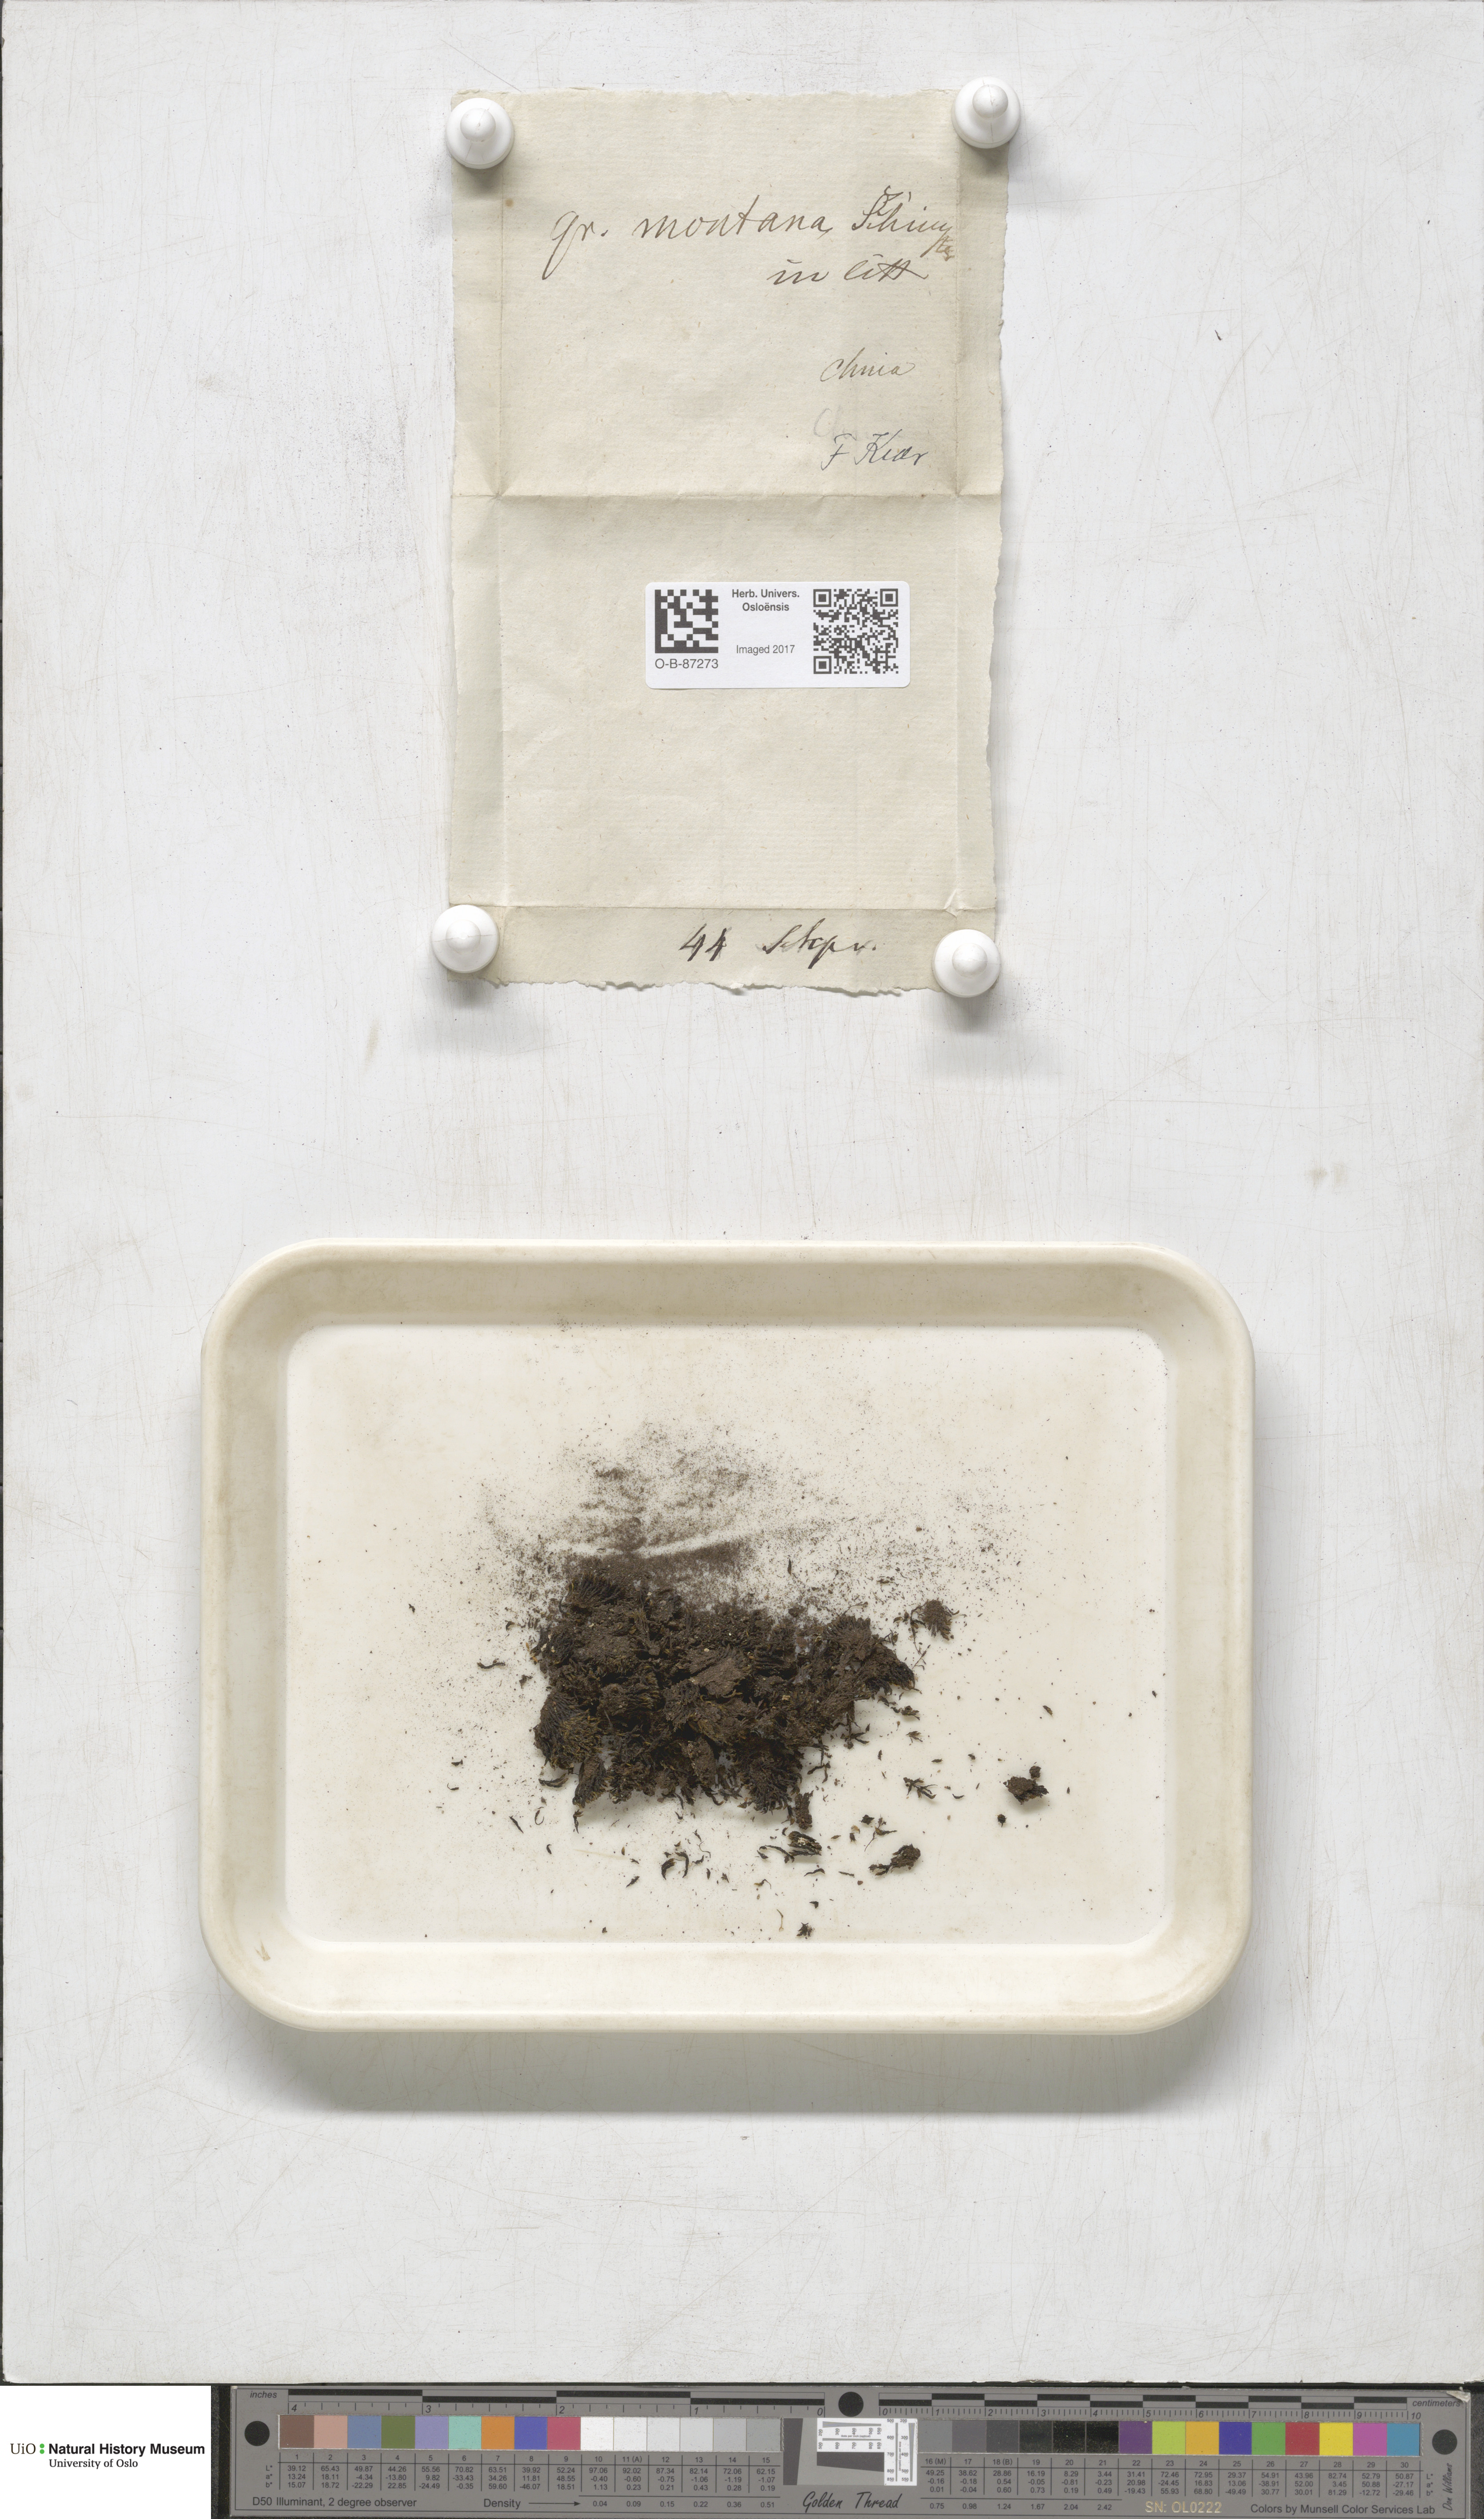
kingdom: Plantae
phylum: Bryophyta
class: Bryopsida
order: Grimmiales
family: Grimmiaceae
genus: Grimmia
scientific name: Grimmia montana
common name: Sun grimmia
